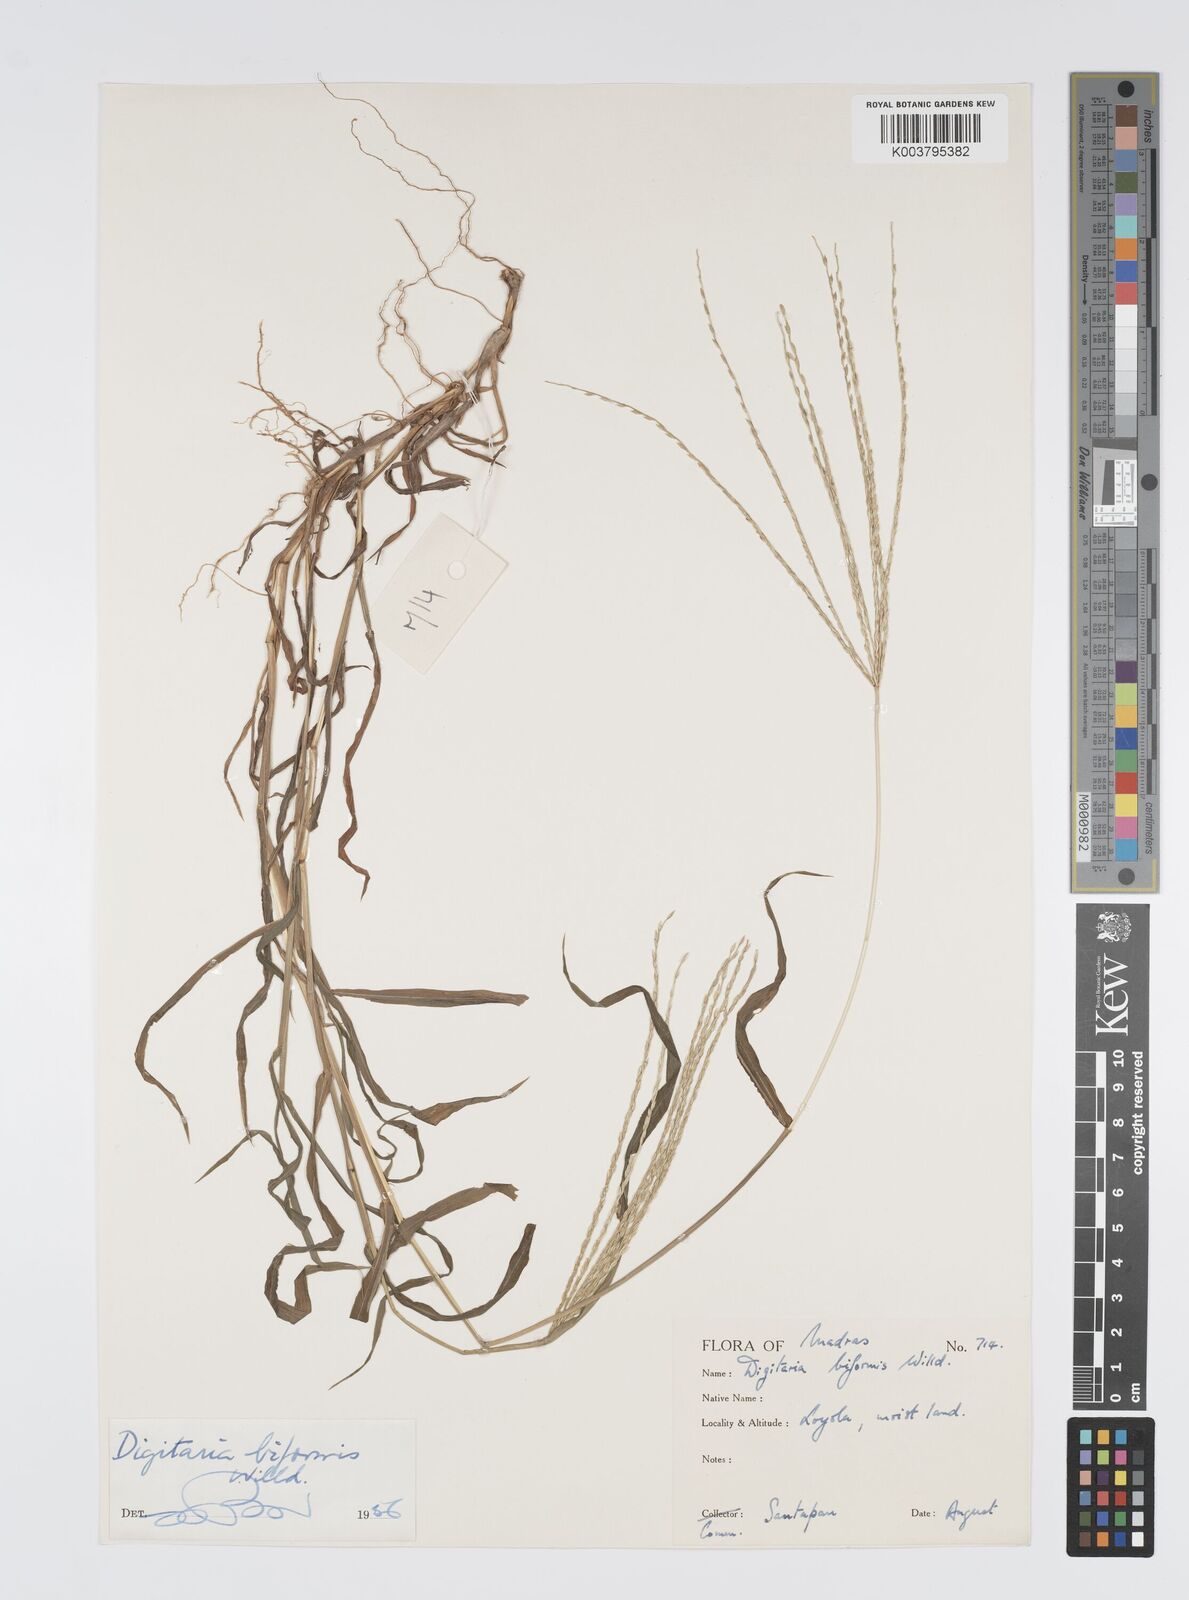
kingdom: Plantae
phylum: Tracheophyta
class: Liliopsida
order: Poales
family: Poaceae
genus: Digitaria
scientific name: Digitaria ciliaris
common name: Tropical finger-grass
